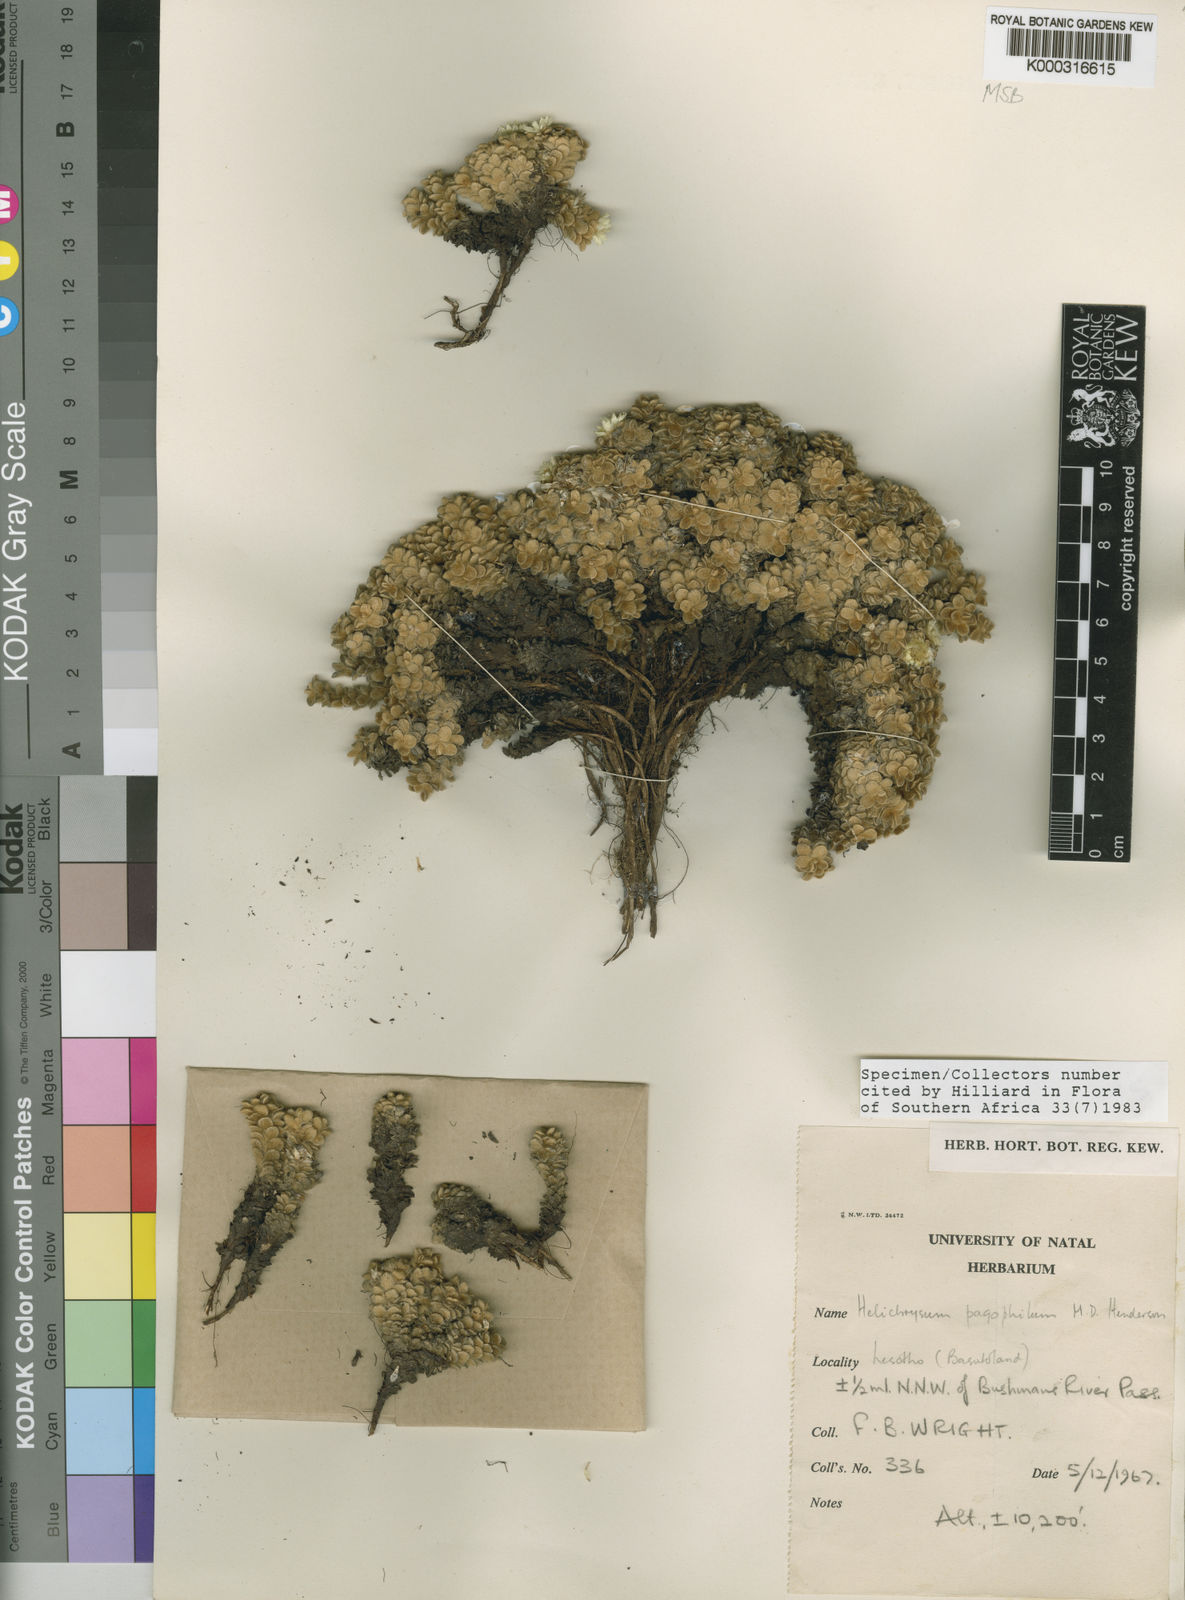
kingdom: Plantae
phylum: Tracheophyta
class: Magnoliopsida
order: Asterales
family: Asteraceae
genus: Helichrysum
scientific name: Helichrysum pagophilum
